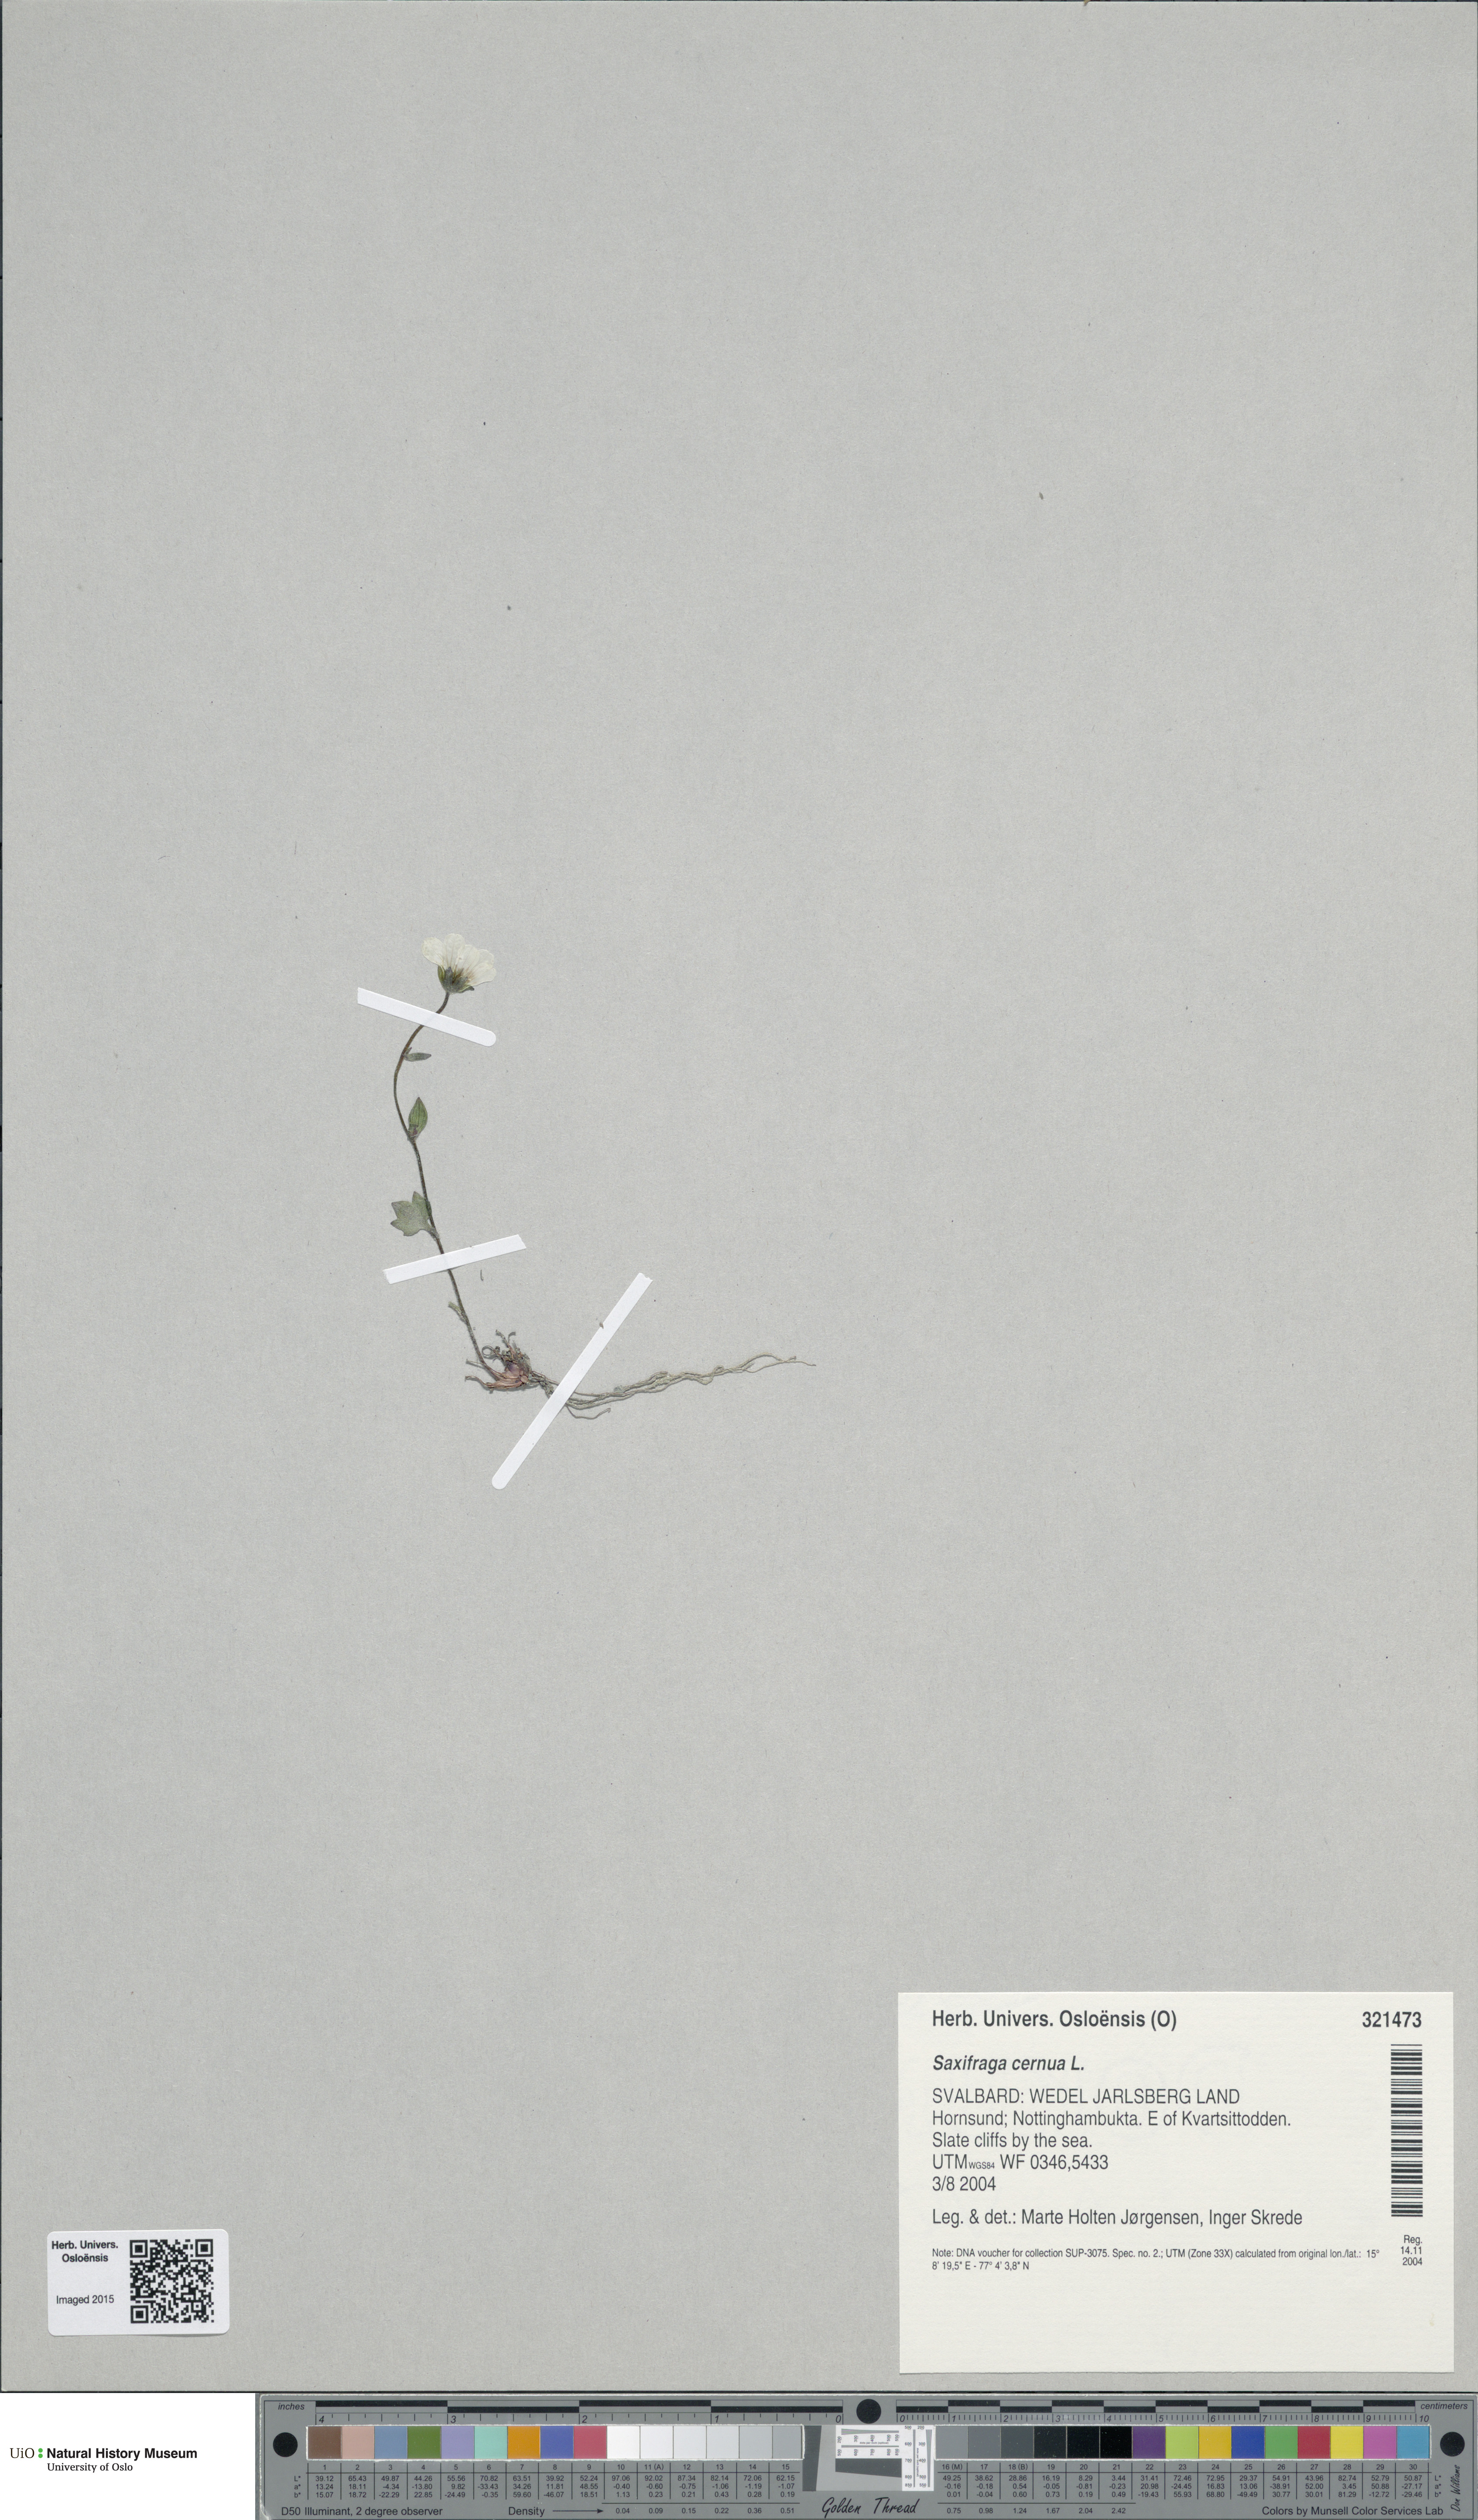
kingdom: Plantae
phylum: Tracheophyta
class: Magnoliopsida
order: Saxifragales
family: Saxifragaceae
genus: Saxifraga
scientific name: Saxifraga cernua
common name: Drooping saxifrage
